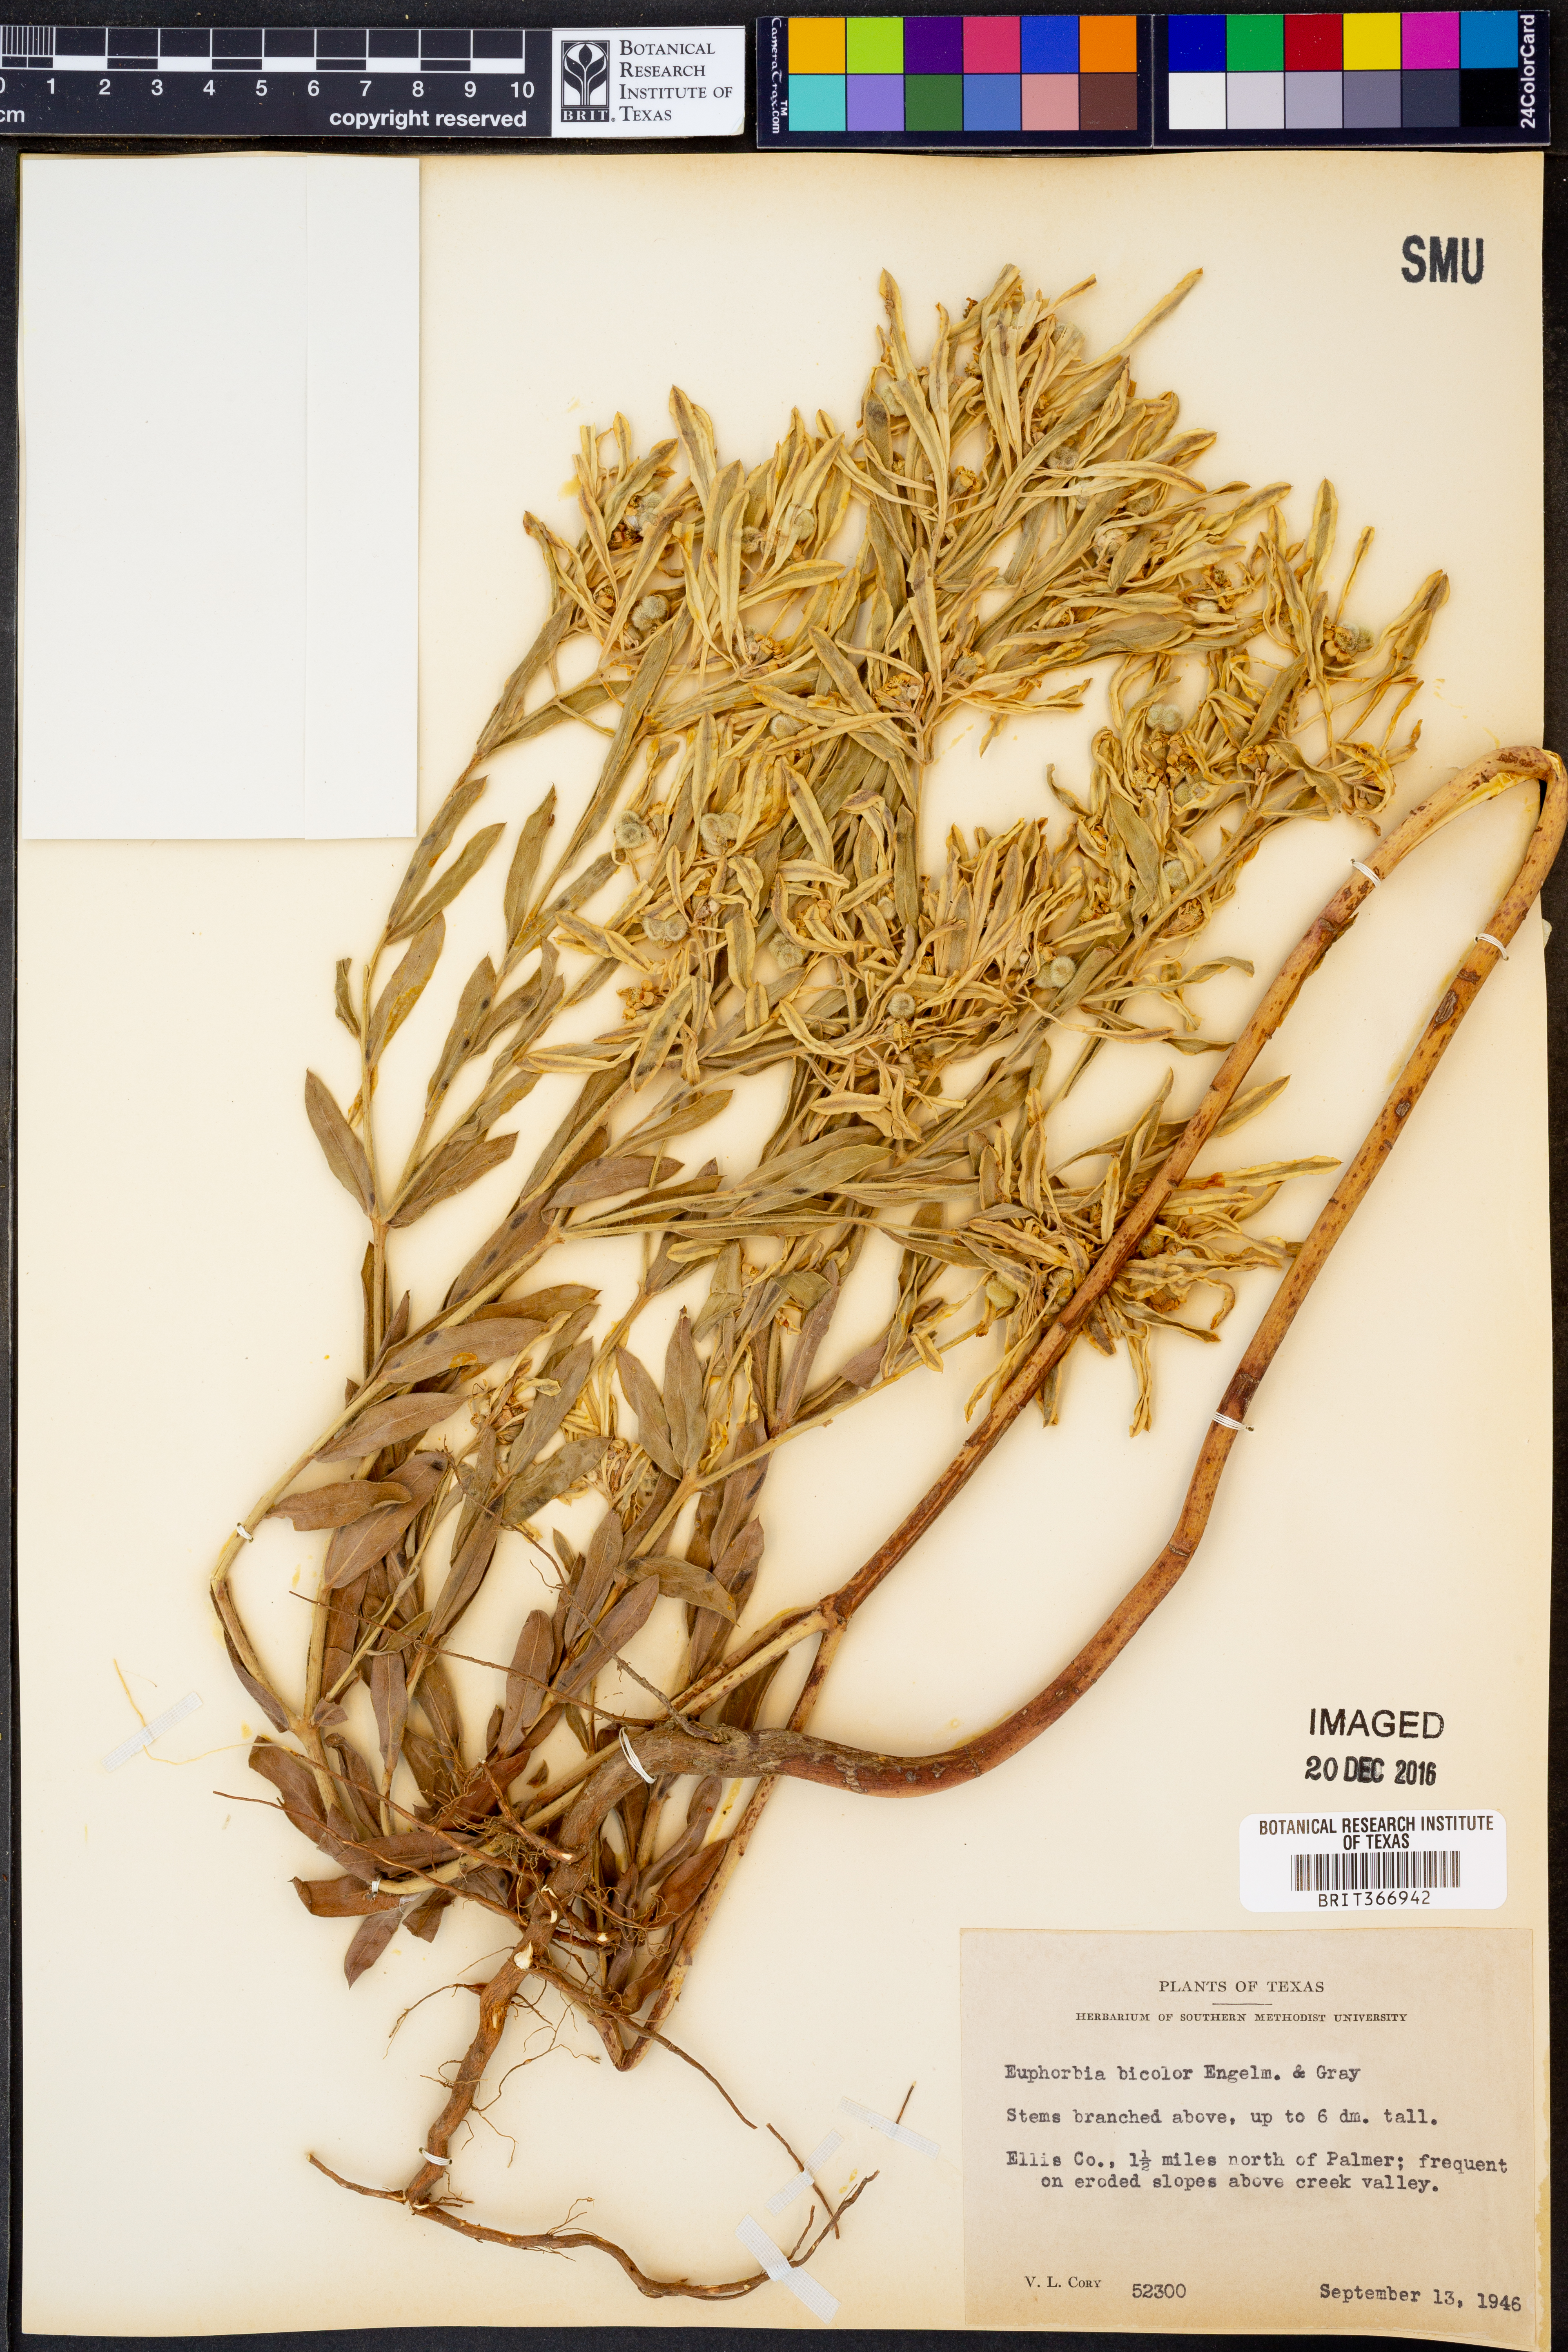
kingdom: Plantae
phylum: Tracheophyta
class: Magnoliopsida
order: Malpighiales
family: Euphorbiaceae
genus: Euphorbia
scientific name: Euphorbia bicolor
